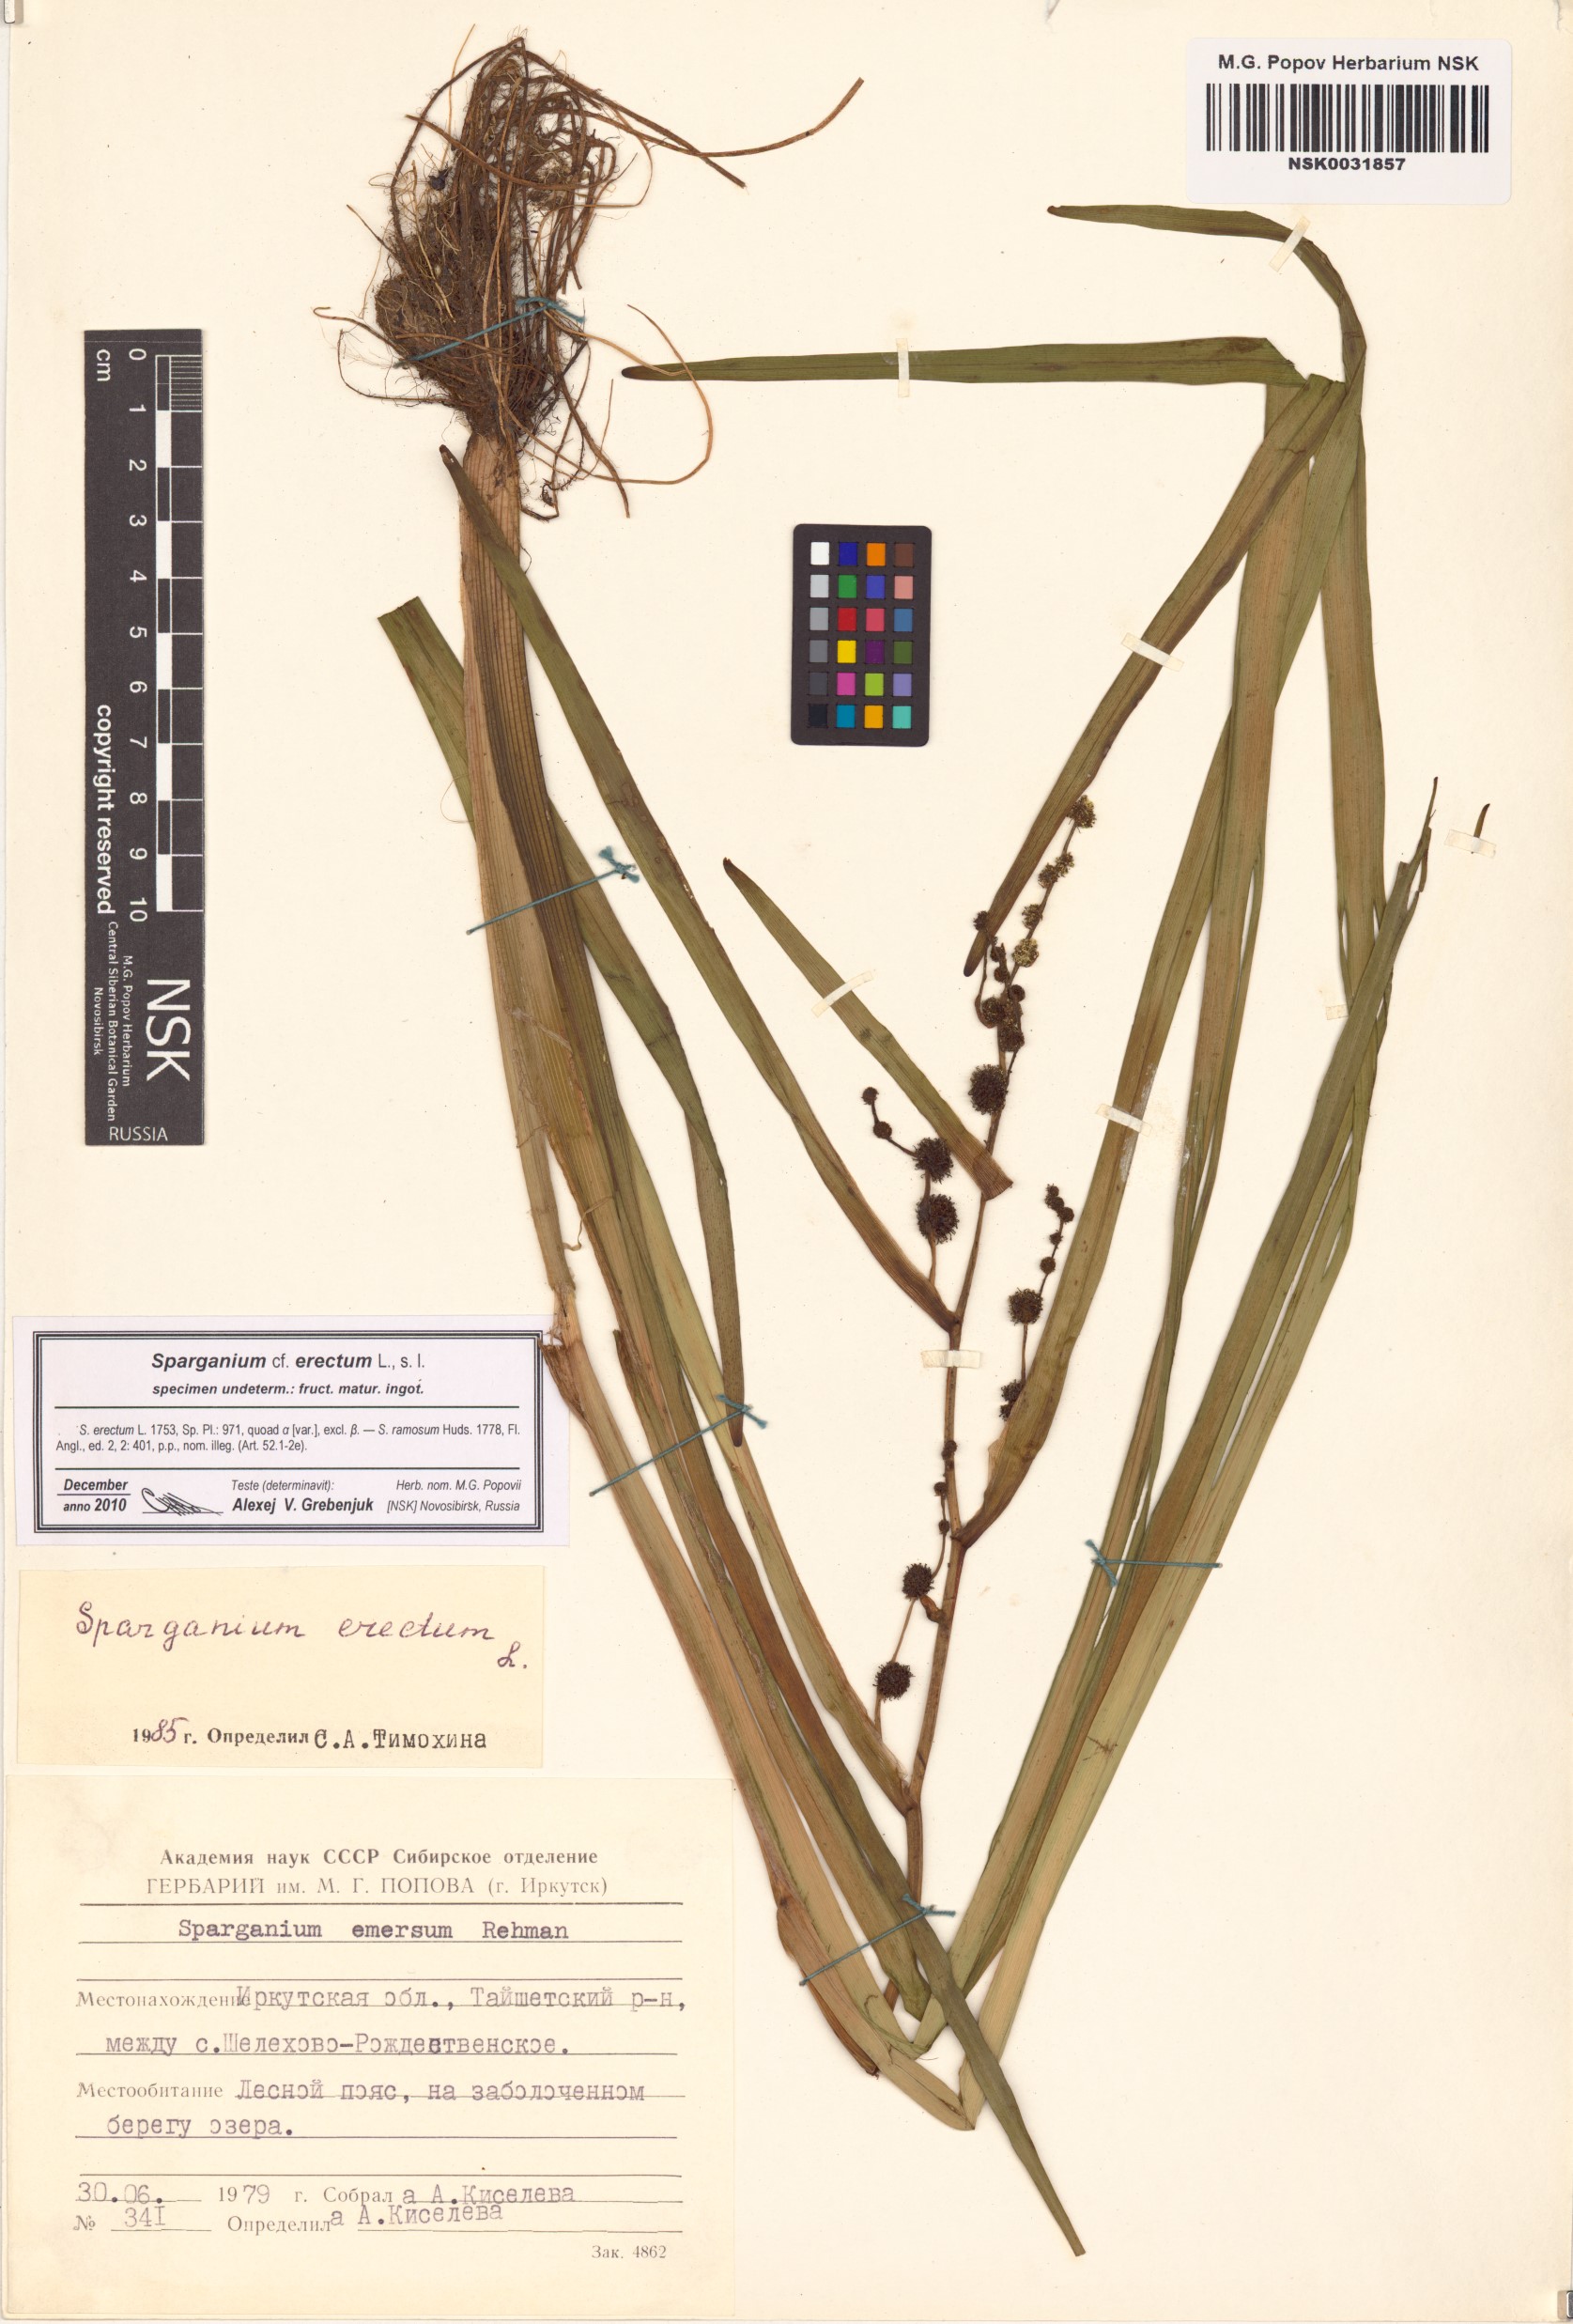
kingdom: Plantae
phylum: Tracheophyta
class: Liliopsida
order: Poales
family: Typhaceae
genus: Sparganium
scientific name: Sparganium erectum
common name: Branched bur-reed
